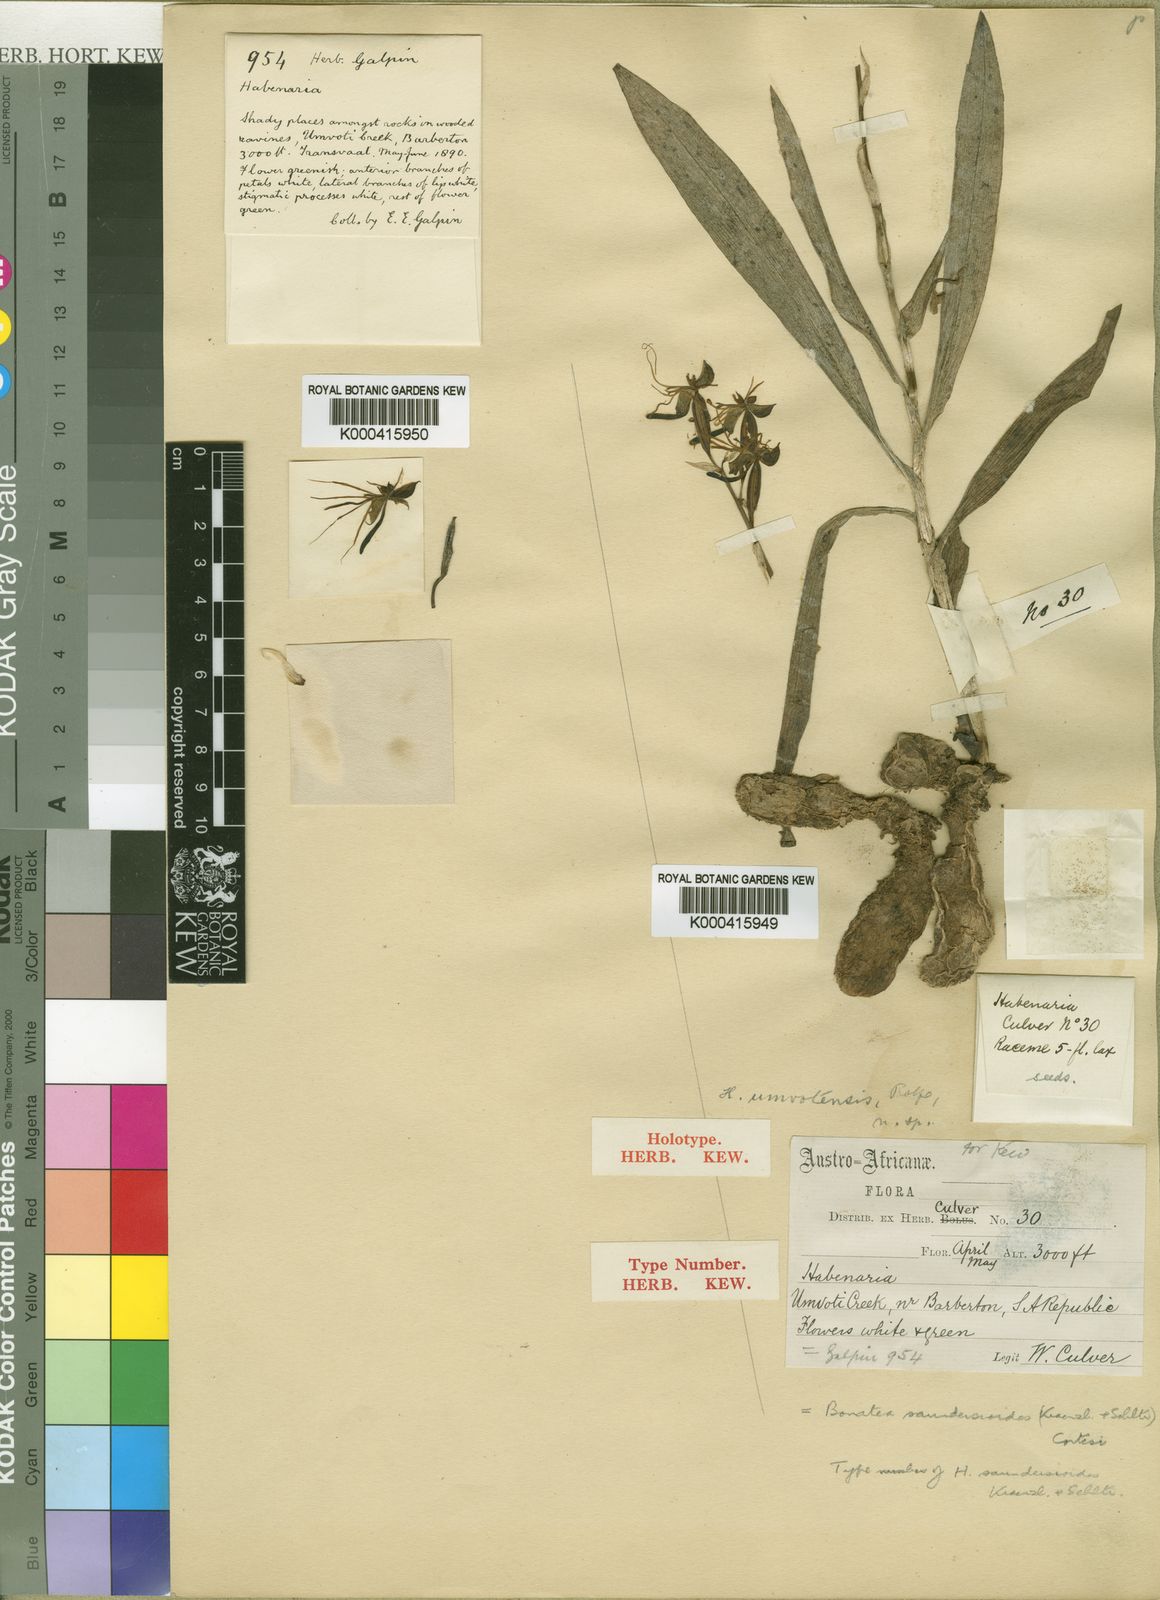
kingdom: Plantae
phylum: Tracheophyta
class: Liliopsida
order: Asparagales
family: Orchidaceae
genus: Bonatea
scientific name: Bonatea saundersioides
